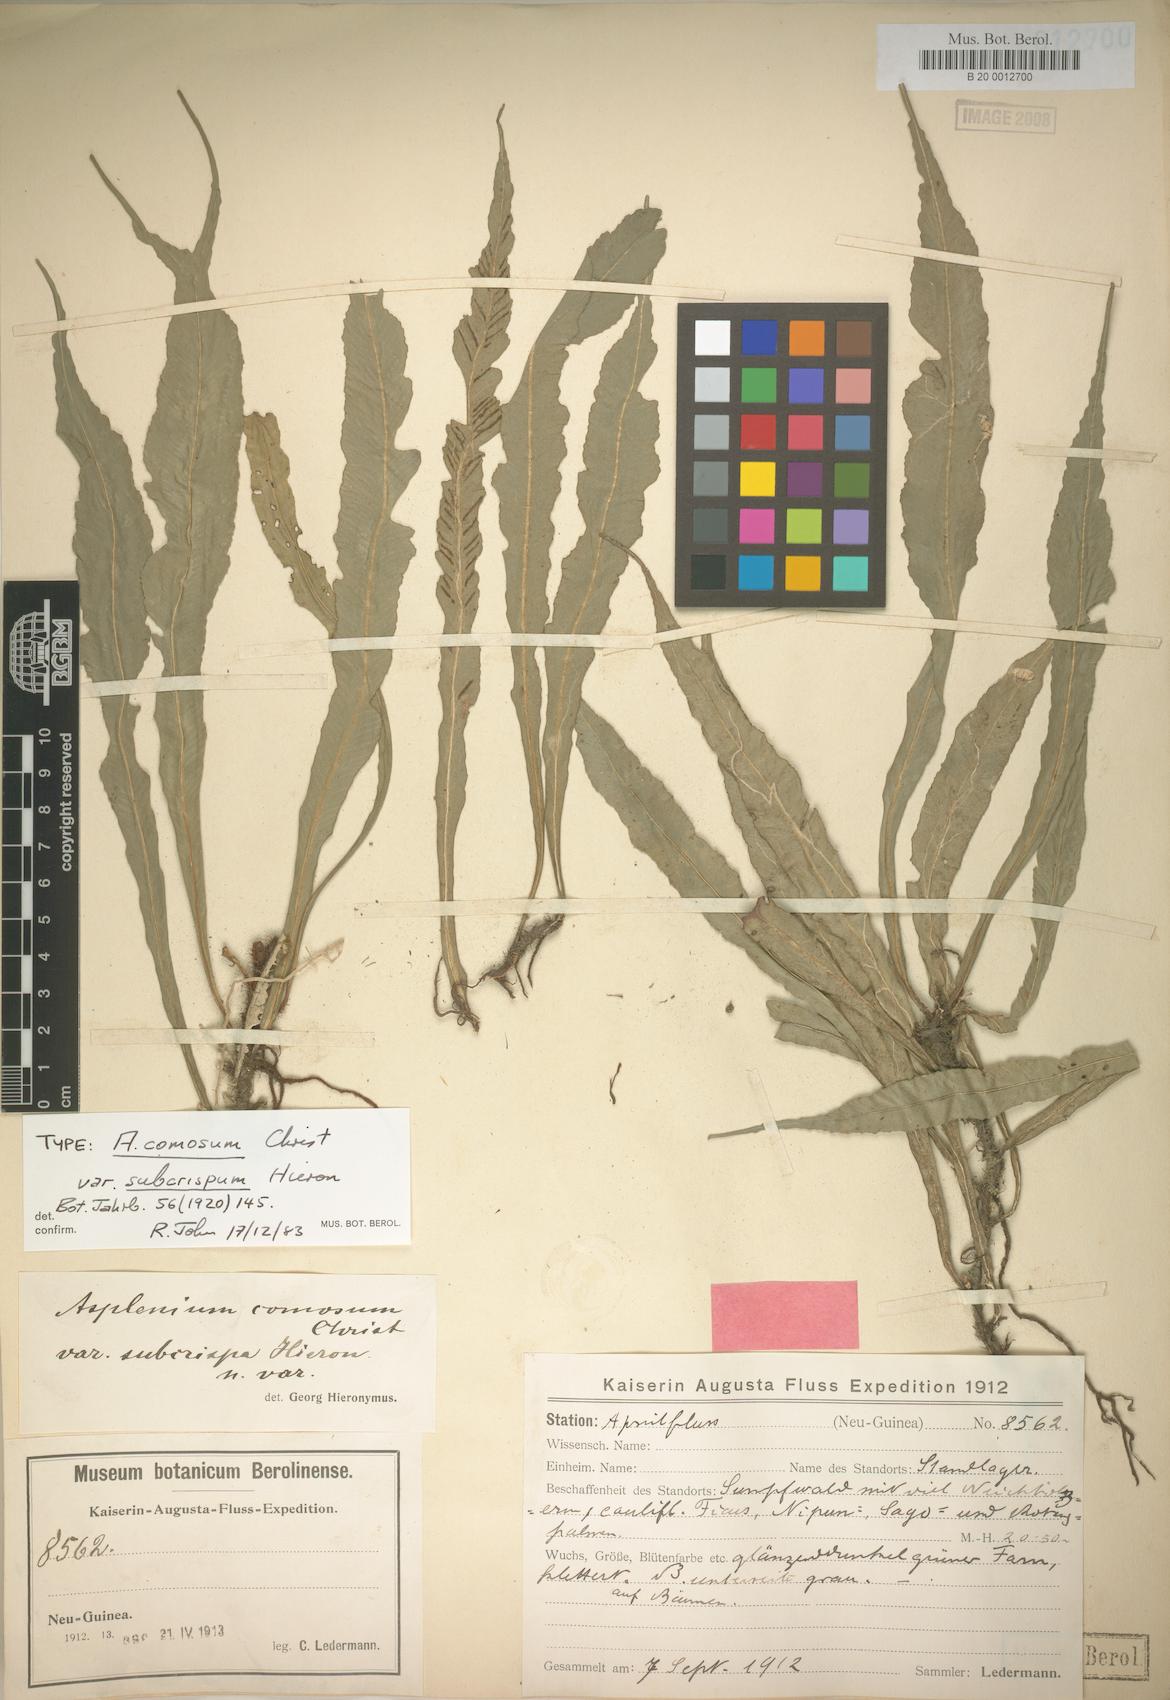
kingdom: Plantae
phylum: Tracheophyta
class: Polypodiopsida
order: Polypodiales
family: Aspleniaceae
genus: Asplenium
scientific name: Asplenium comosum
